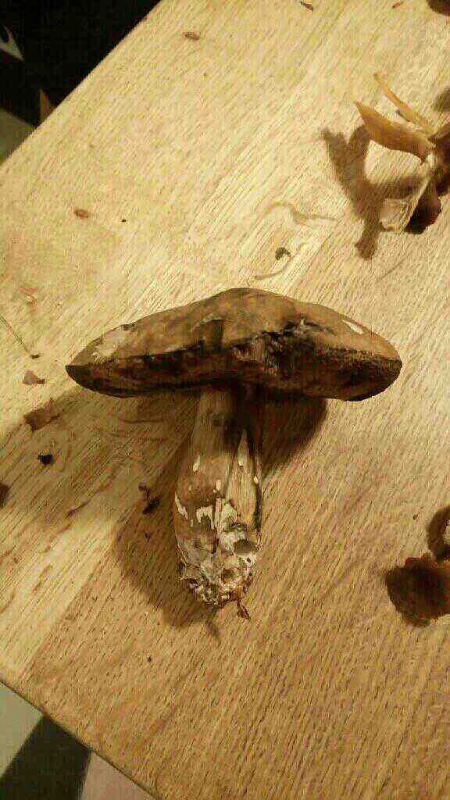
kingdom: Fungi
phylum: Basidiomycota
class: Agaricomycetes
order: Boletales
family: Boletaceae
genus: Porphyrellus
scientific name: Porphyrellus porphyrosporus
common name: sodrørhat
